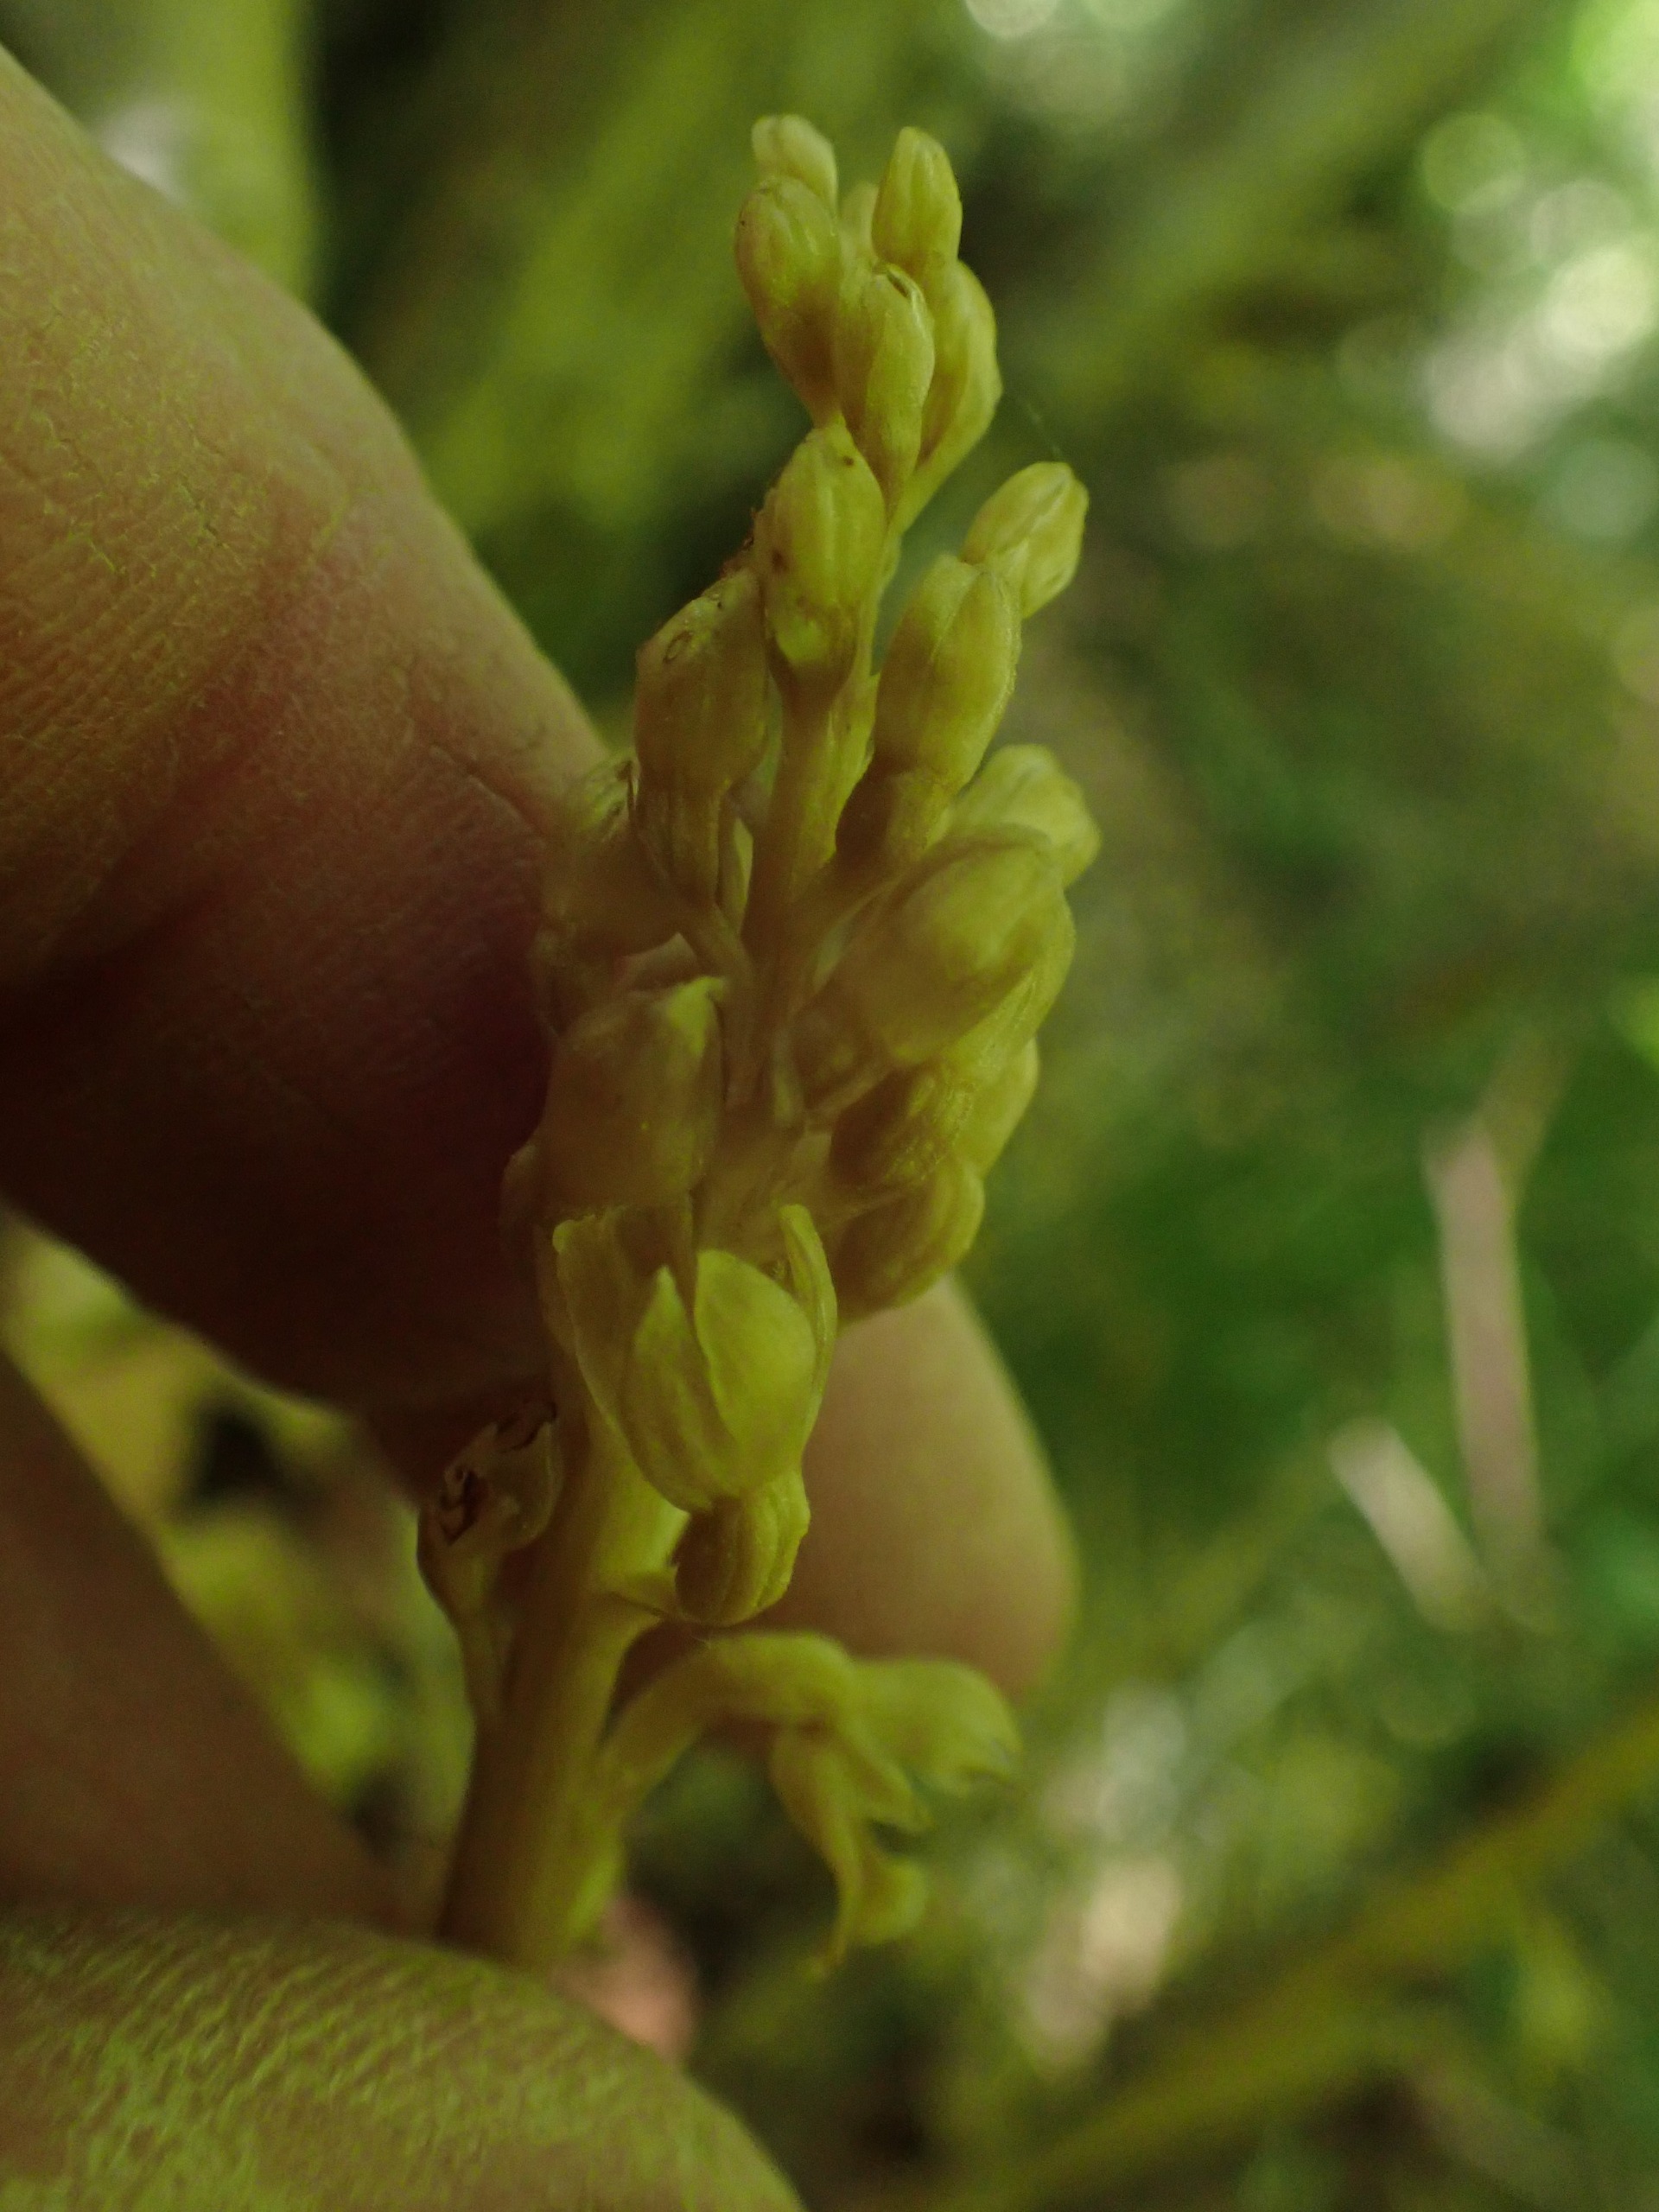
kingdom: Plantae
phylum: Tracheophyta
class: Liliopsida
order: Asparagales
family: Orchidaceae
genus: Neottia
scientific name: Neottia nidus-avis
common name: Rederod
